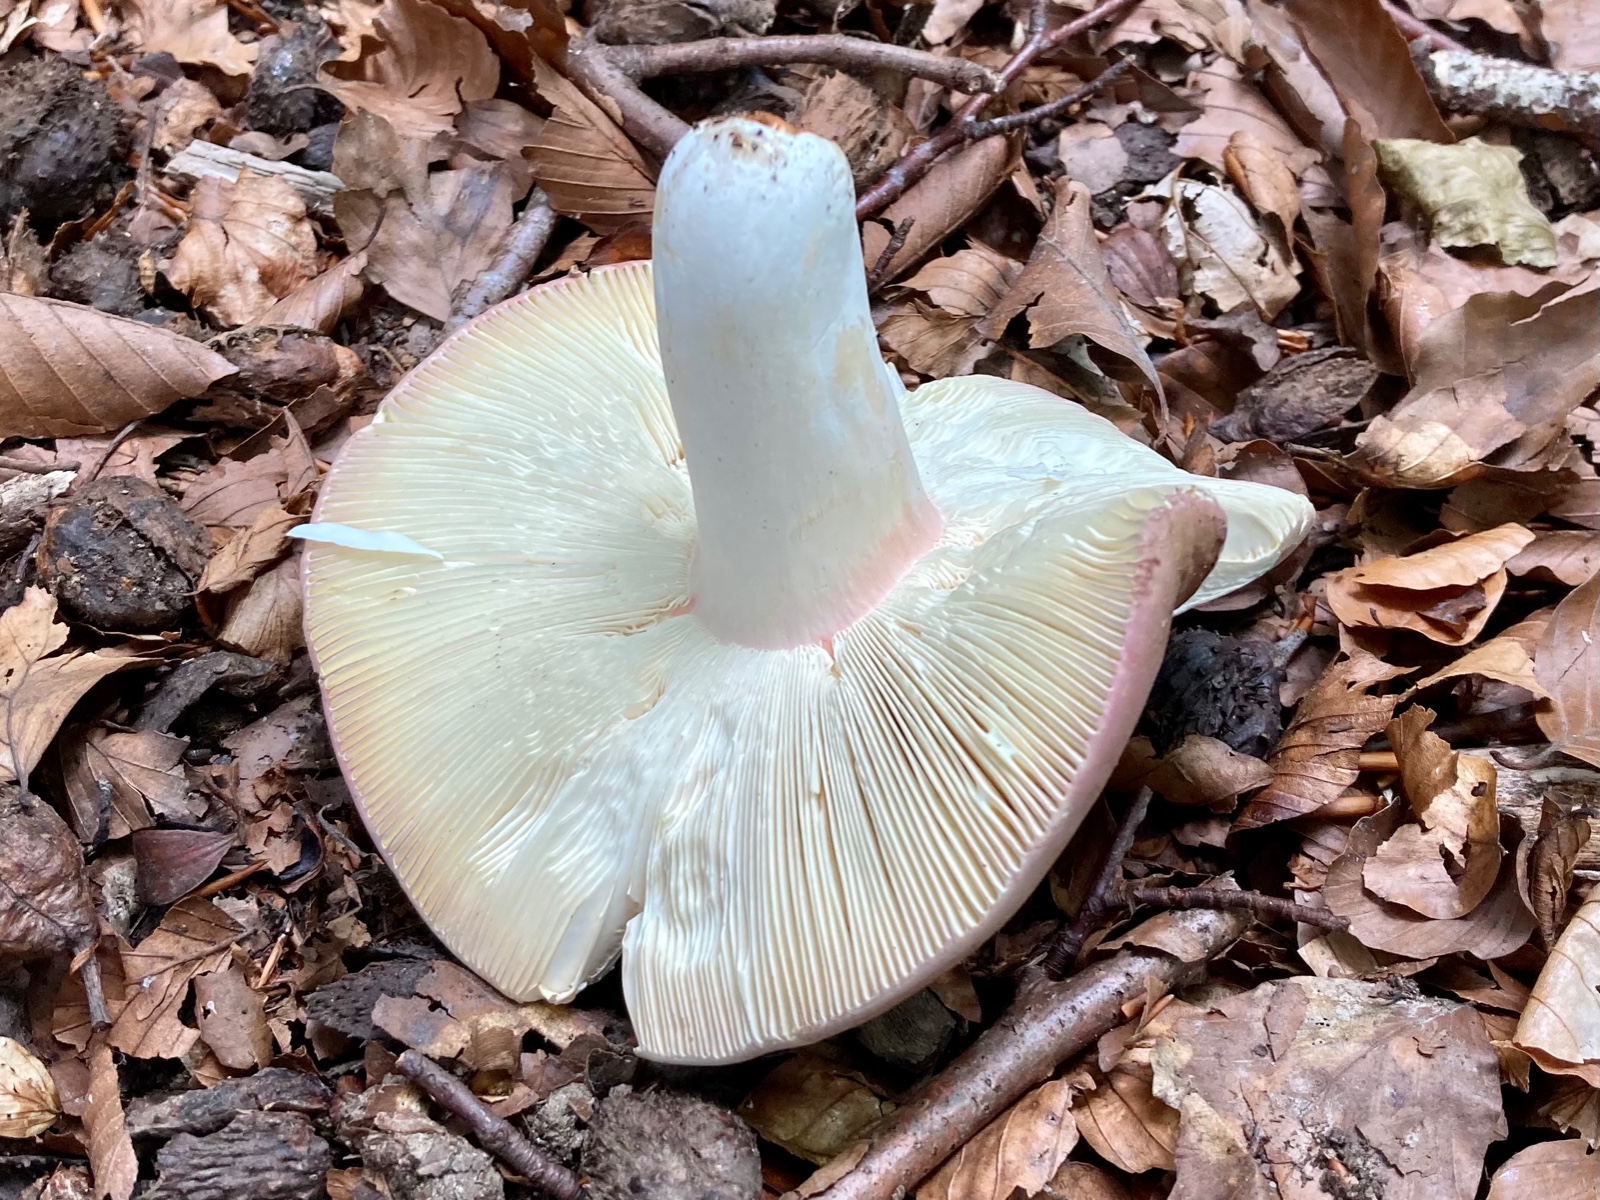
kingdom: Fungi
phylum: Basidiomycota
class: Agaricomycetes
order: Russulales
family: Russulaceae
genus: Russula
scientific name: Russula olivacea
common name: stor skørhat
